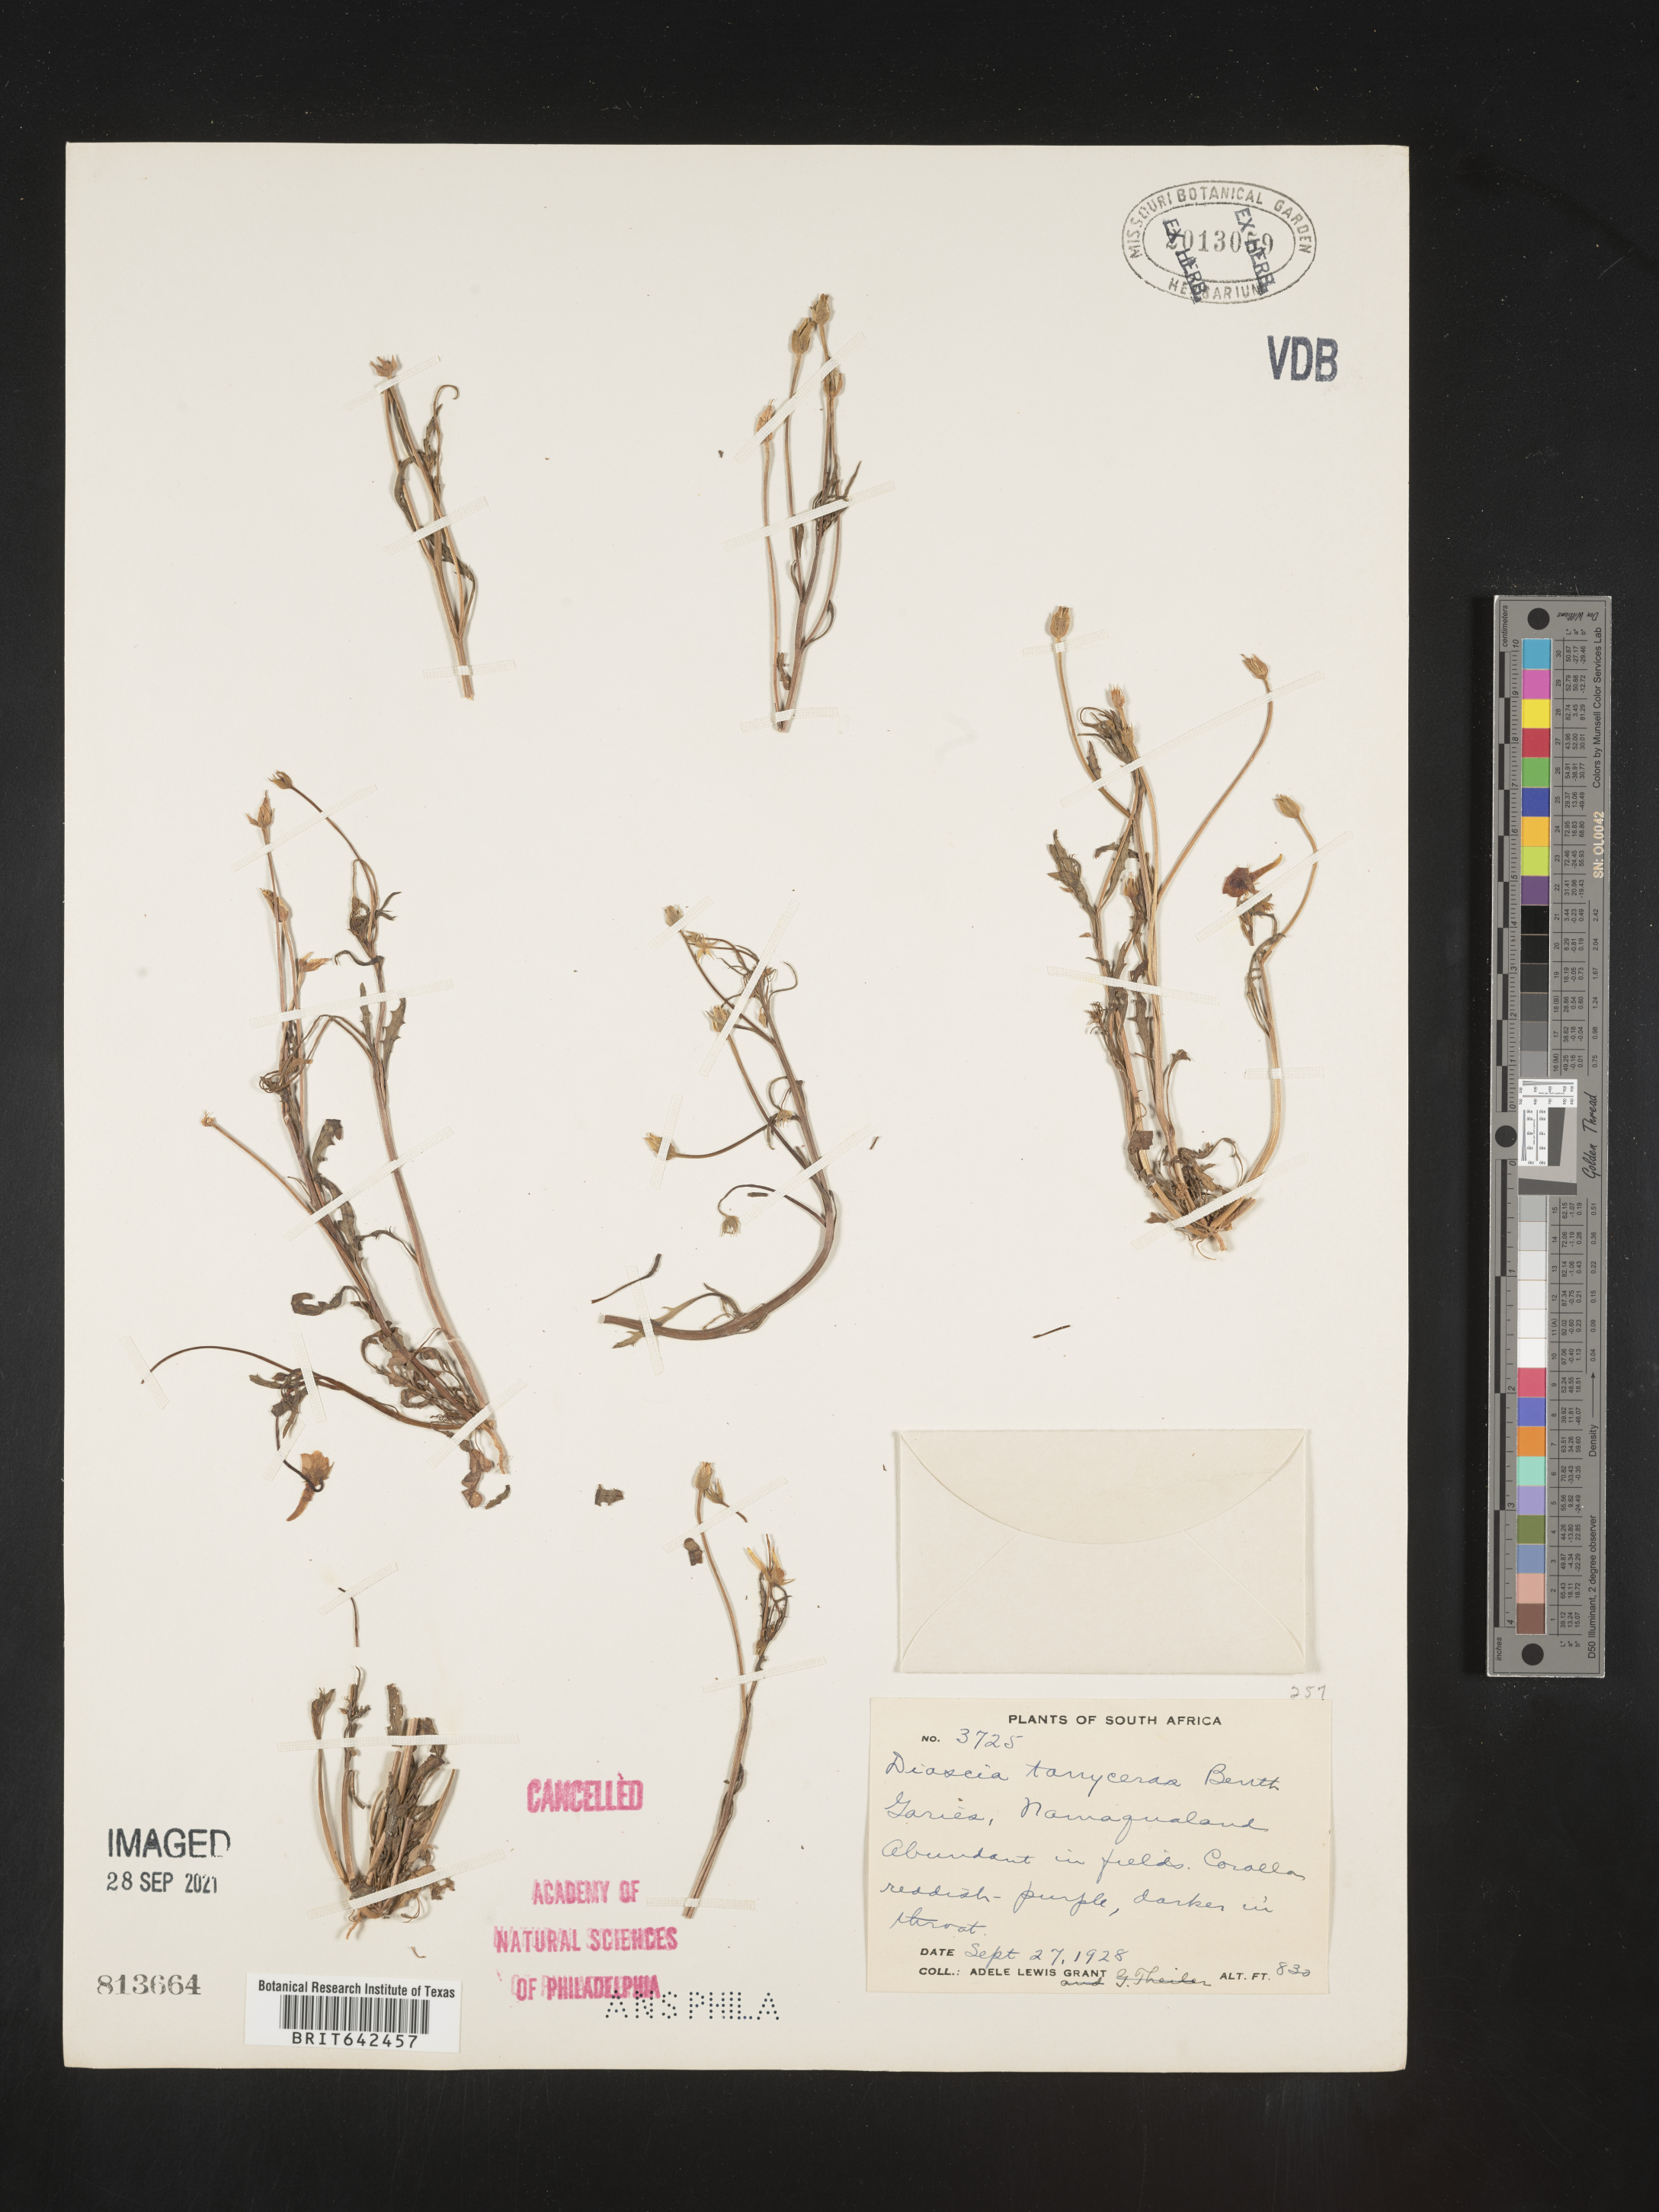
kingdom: Plantae
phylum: Tracheophyta
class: Magnoliopsida
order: Lamiales
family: Scrophulariaceae
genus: Diascia
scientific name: Diascia
